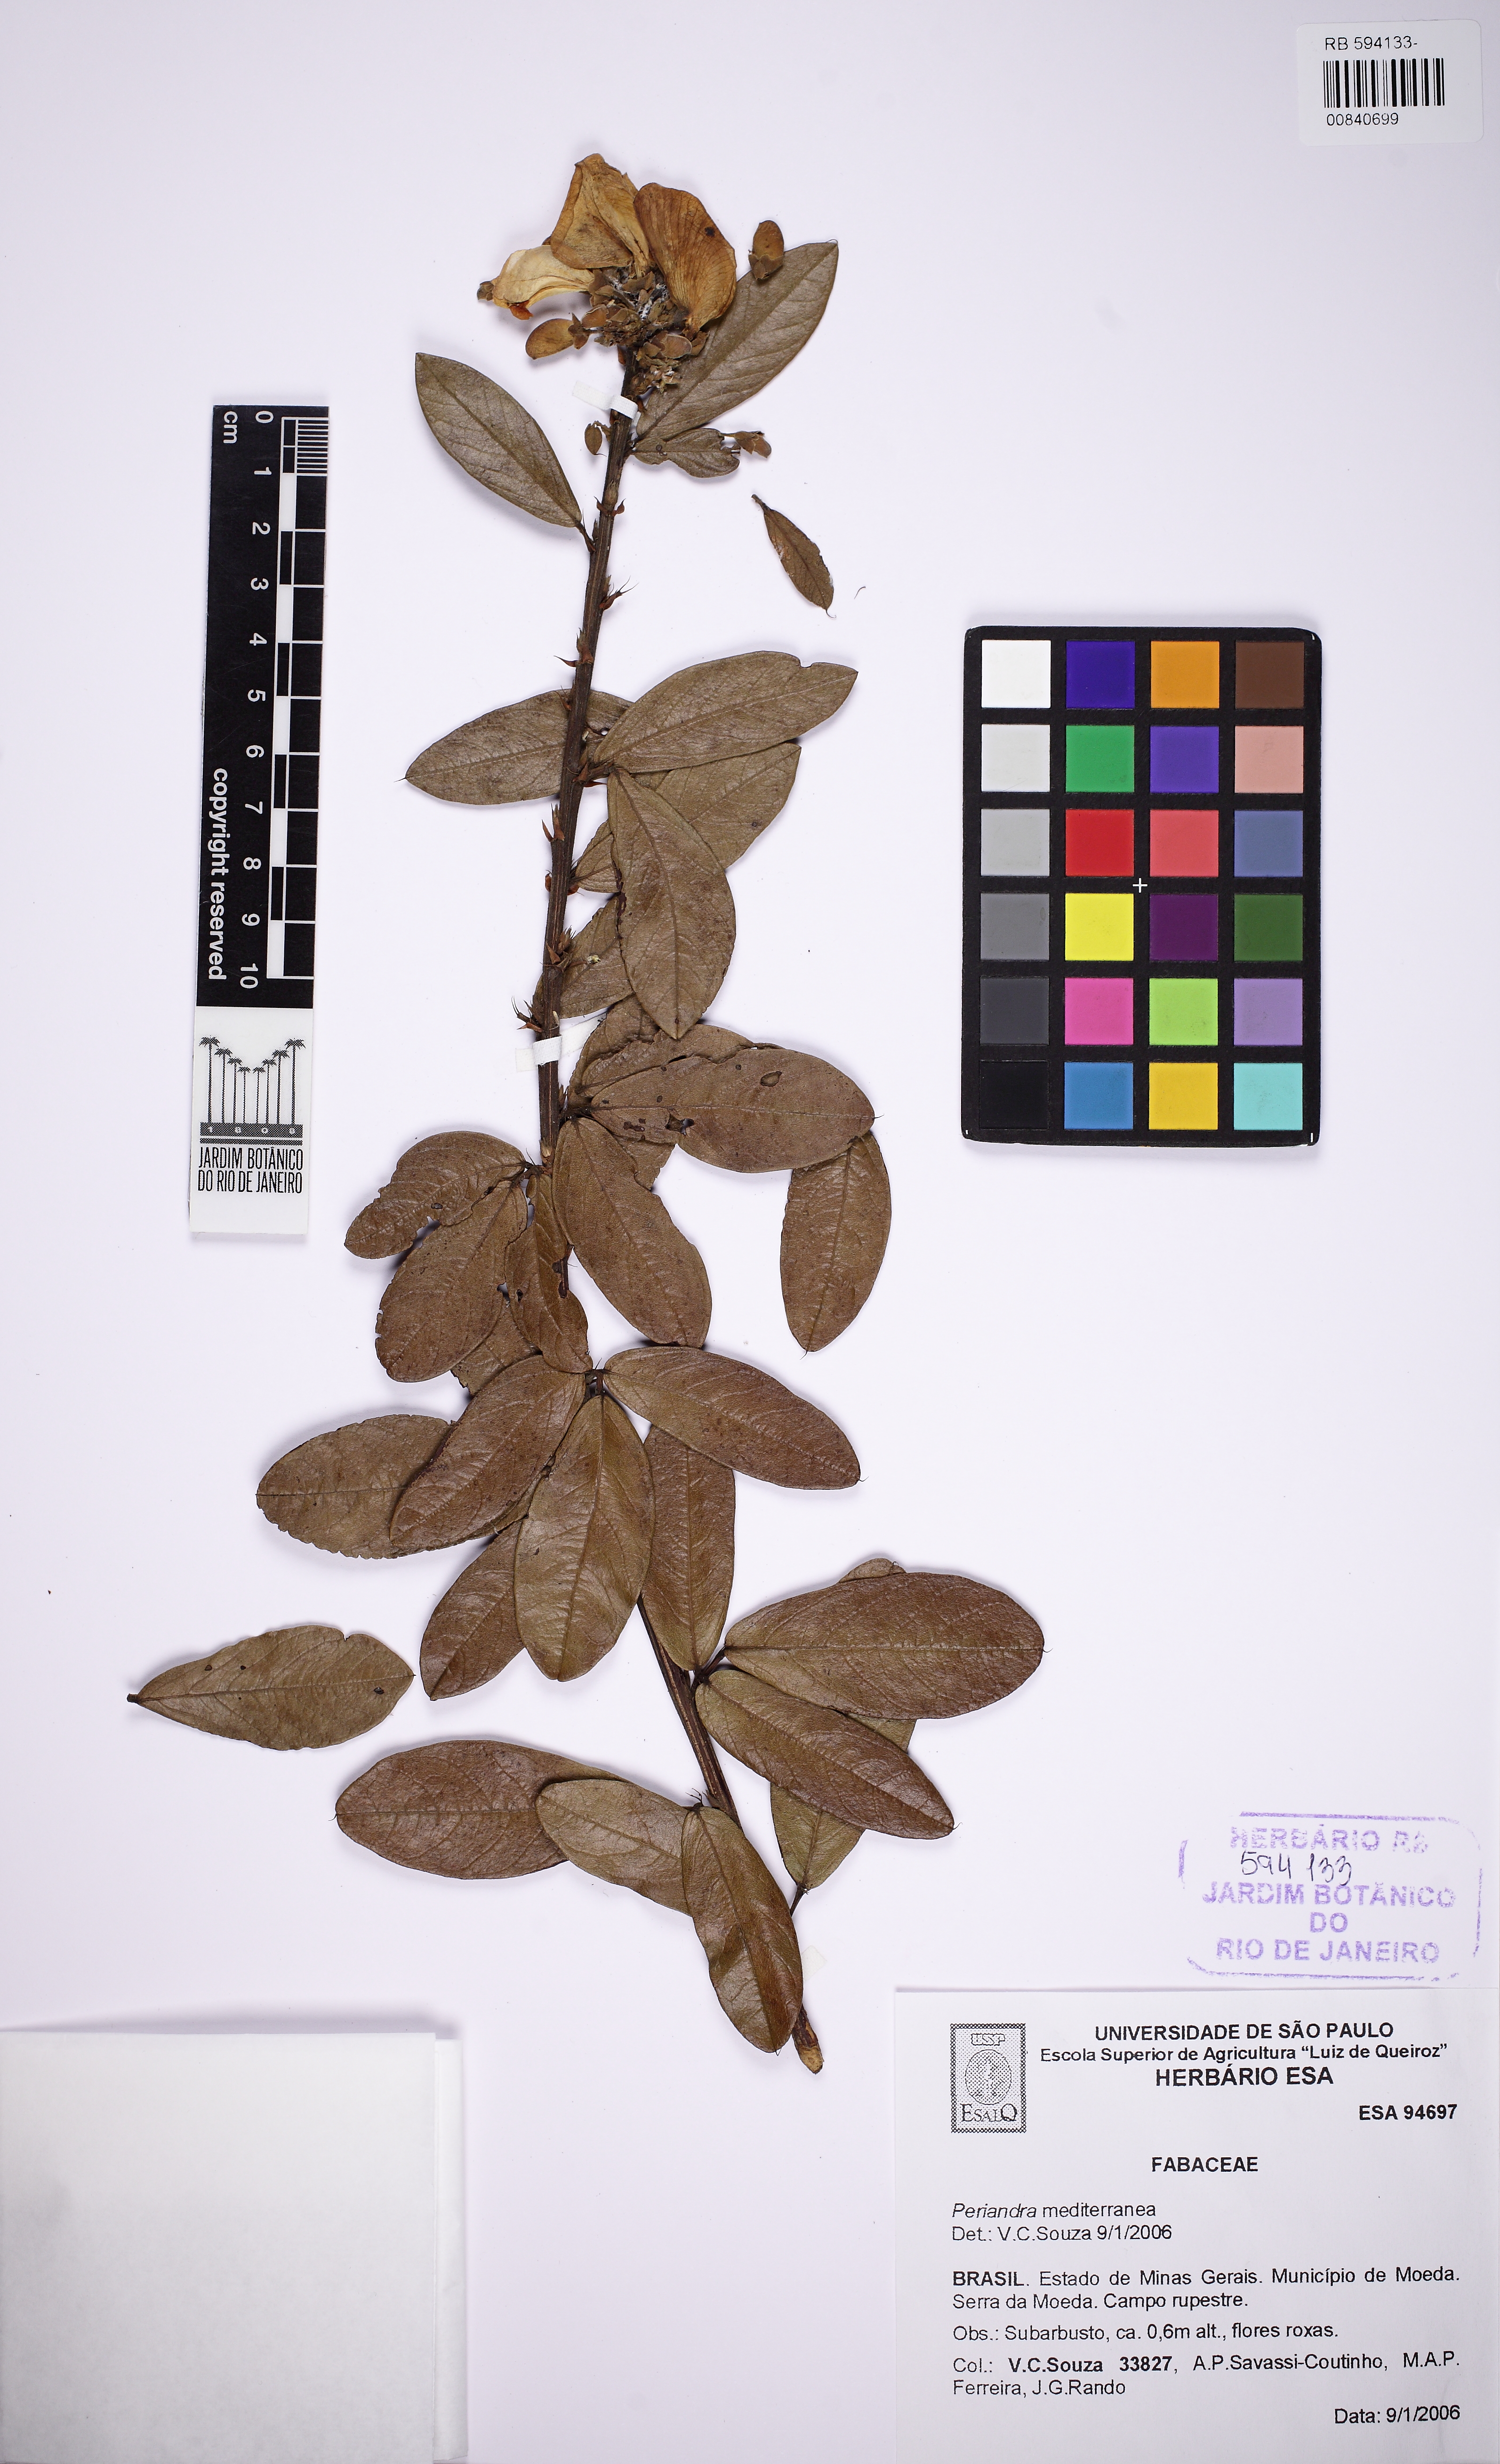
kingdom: Plantae
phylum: Tracheophyta
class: Magnoliopsida
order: Fabales
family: Fabaceae
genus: Periandra
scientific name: Periandra mediterranea
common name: Brazilian licorice
